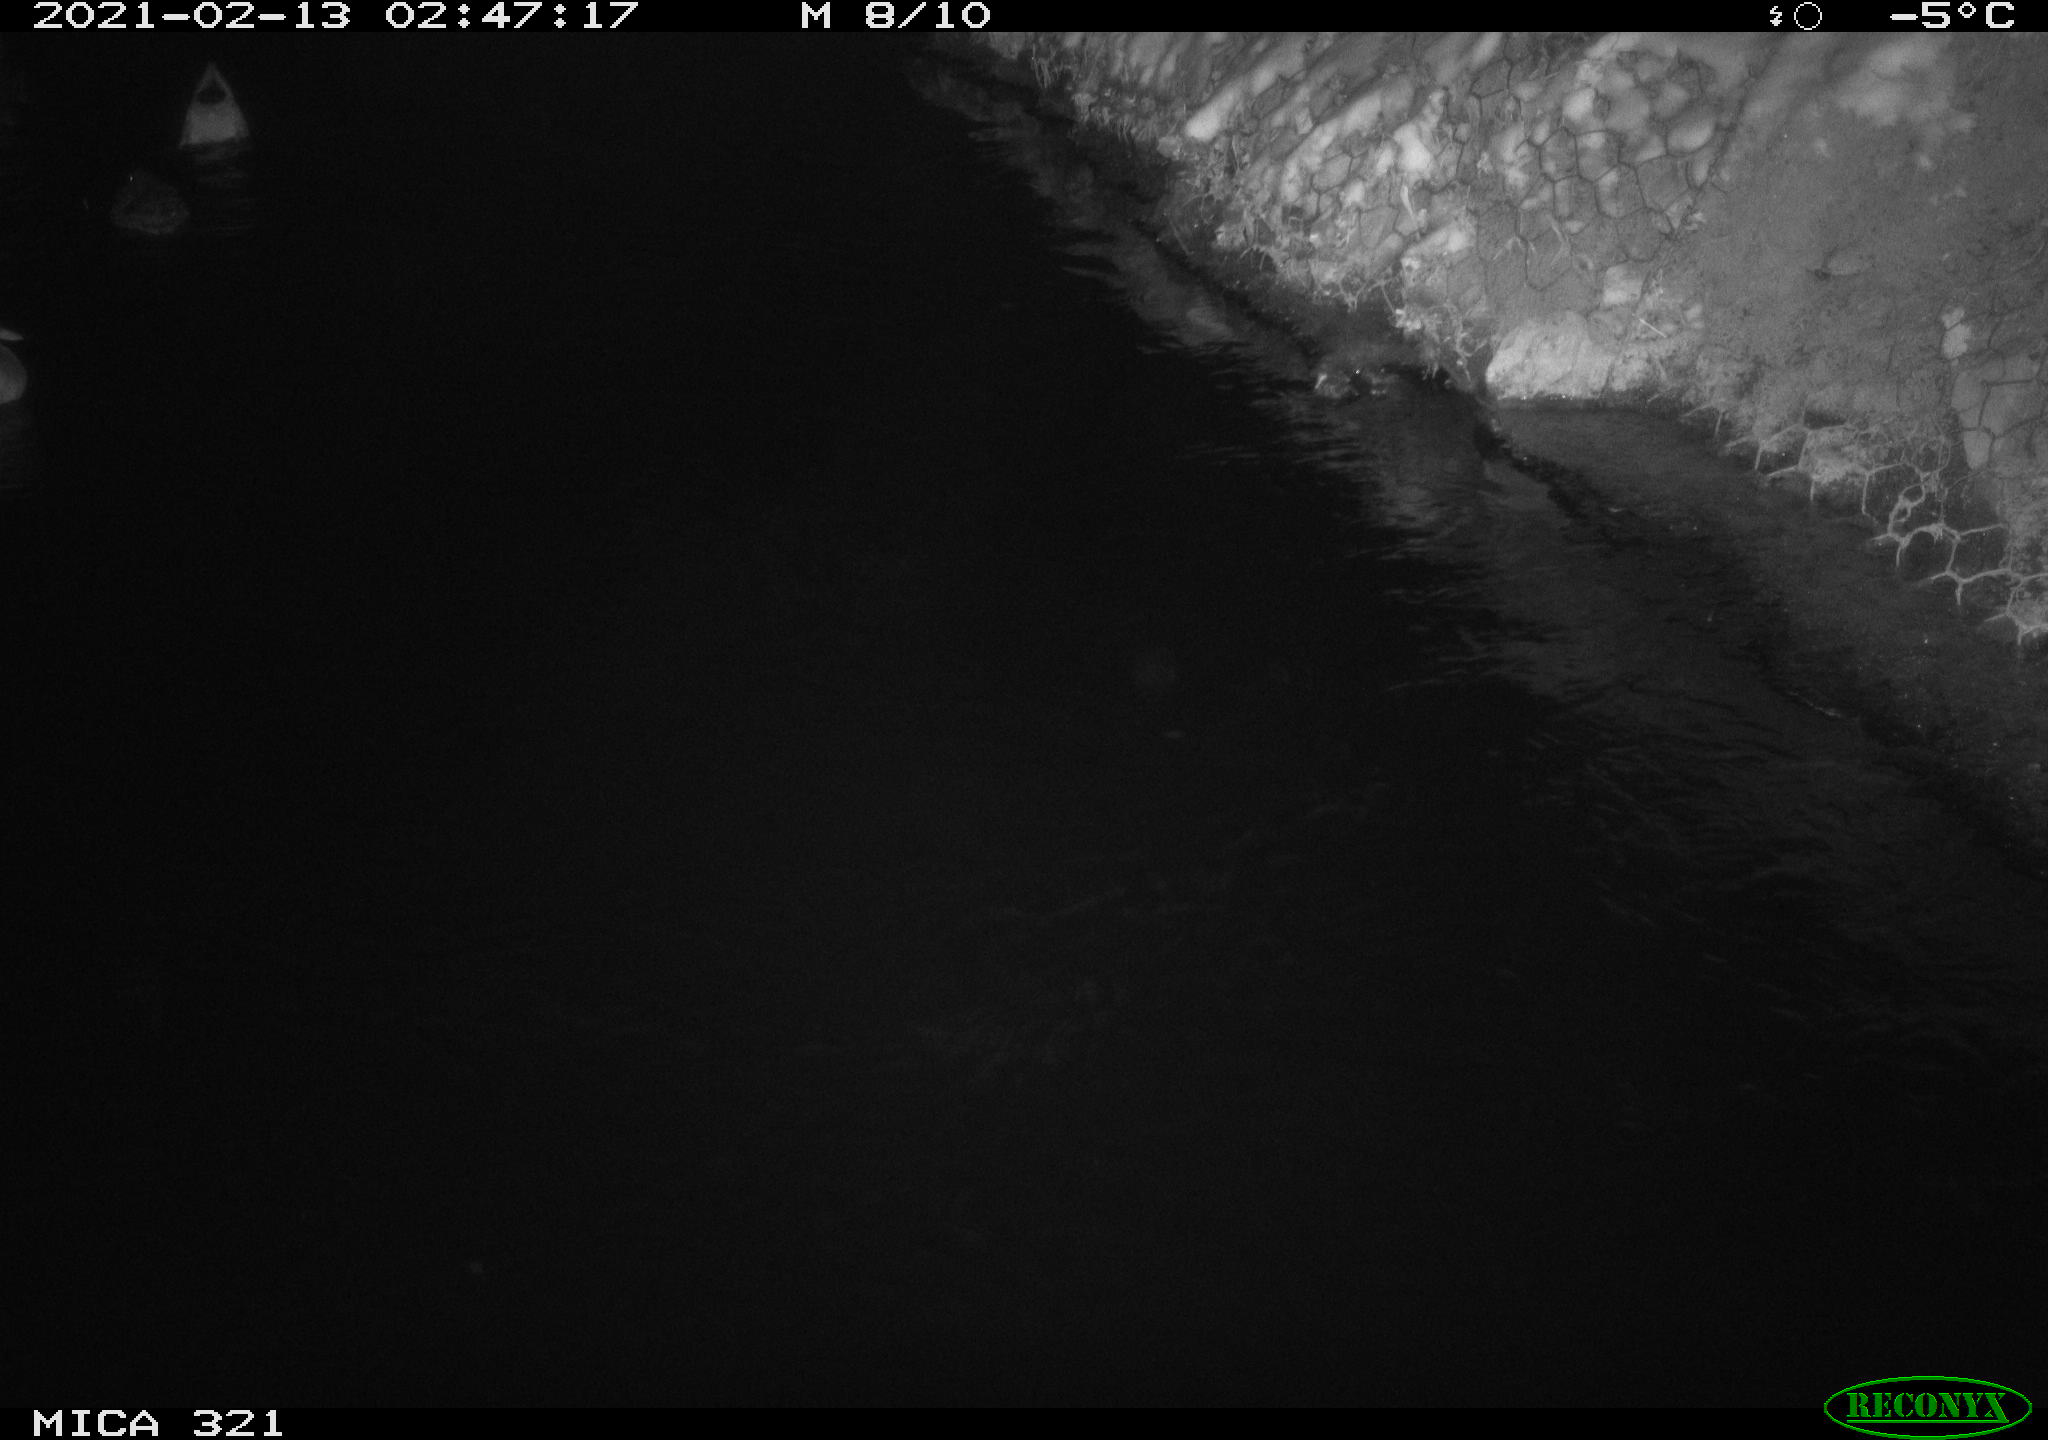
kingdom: Animalia
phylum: Chordata
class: Aves
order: Anseriformes
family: Anatidae
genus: Anas
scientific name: Anas platyrhynchos
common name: Mallard
